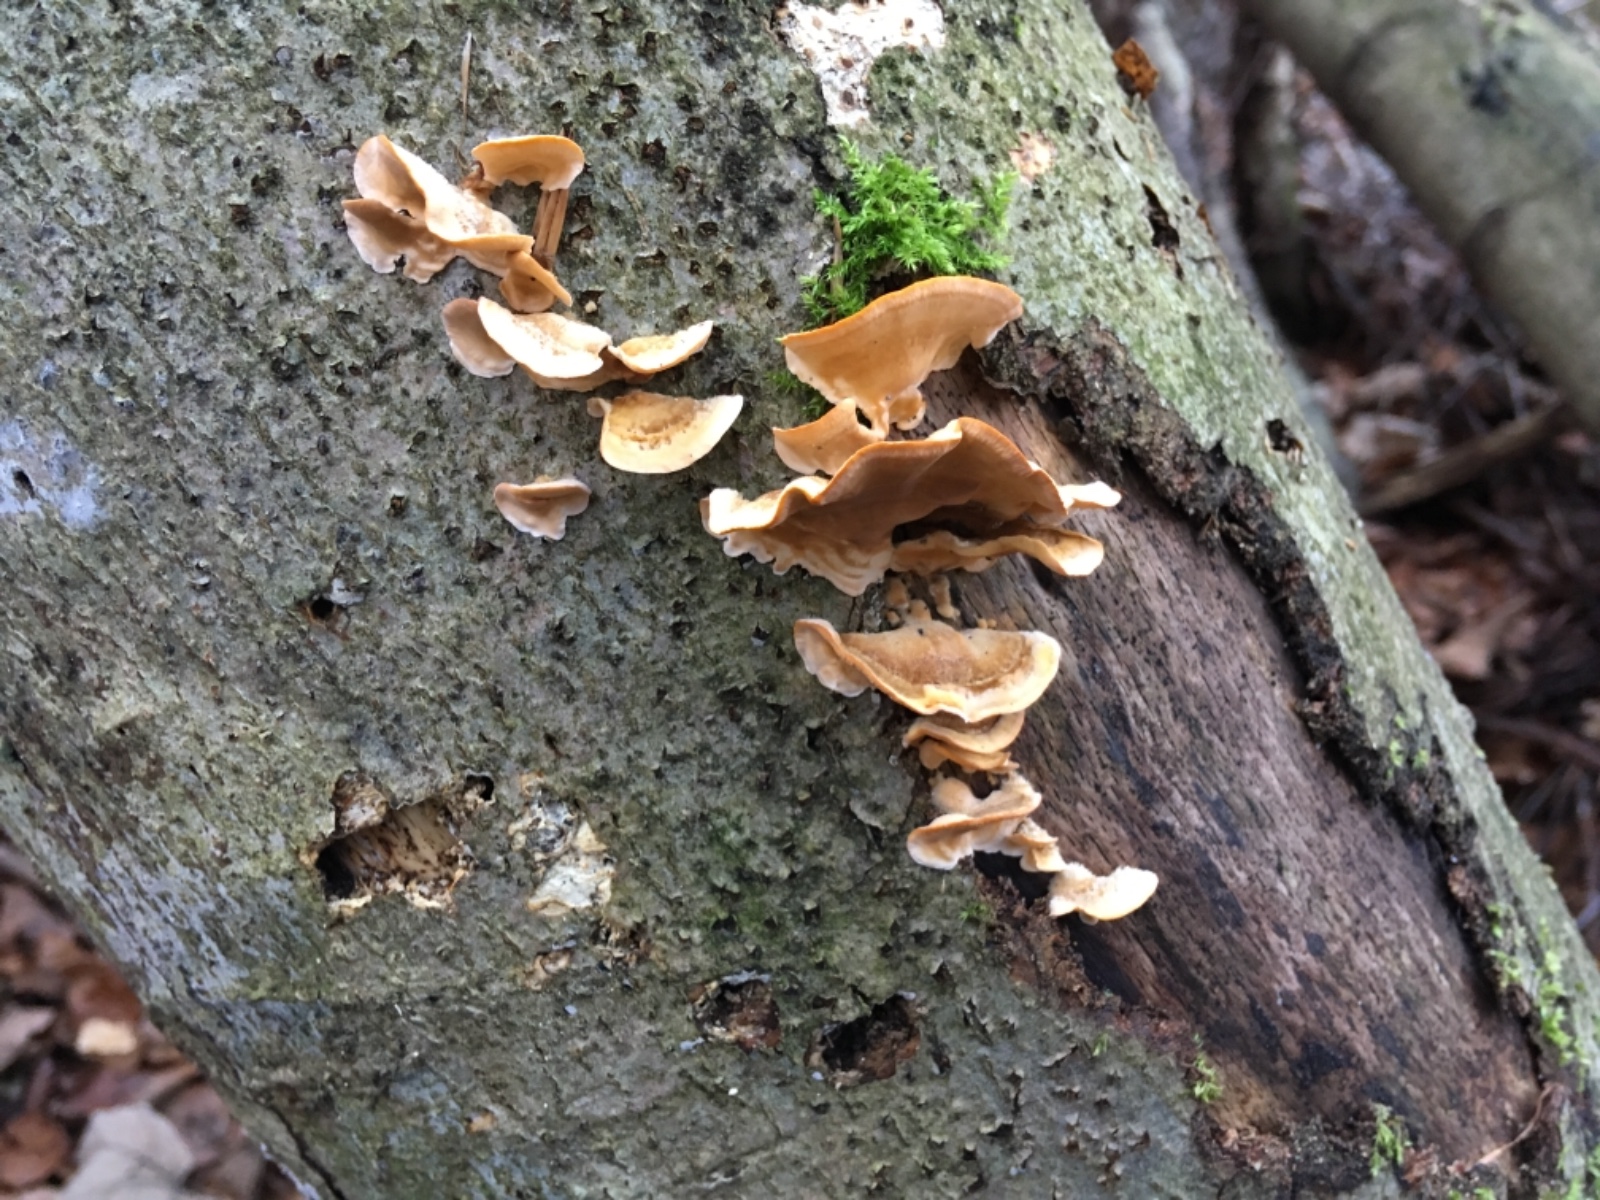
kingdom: Fungi
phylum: Basidiomycota
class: Agaricomycetes
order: Russulales
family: Stereaceae
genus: Stereum
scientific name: Stereum hirsutum
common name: håret lædersvamp
